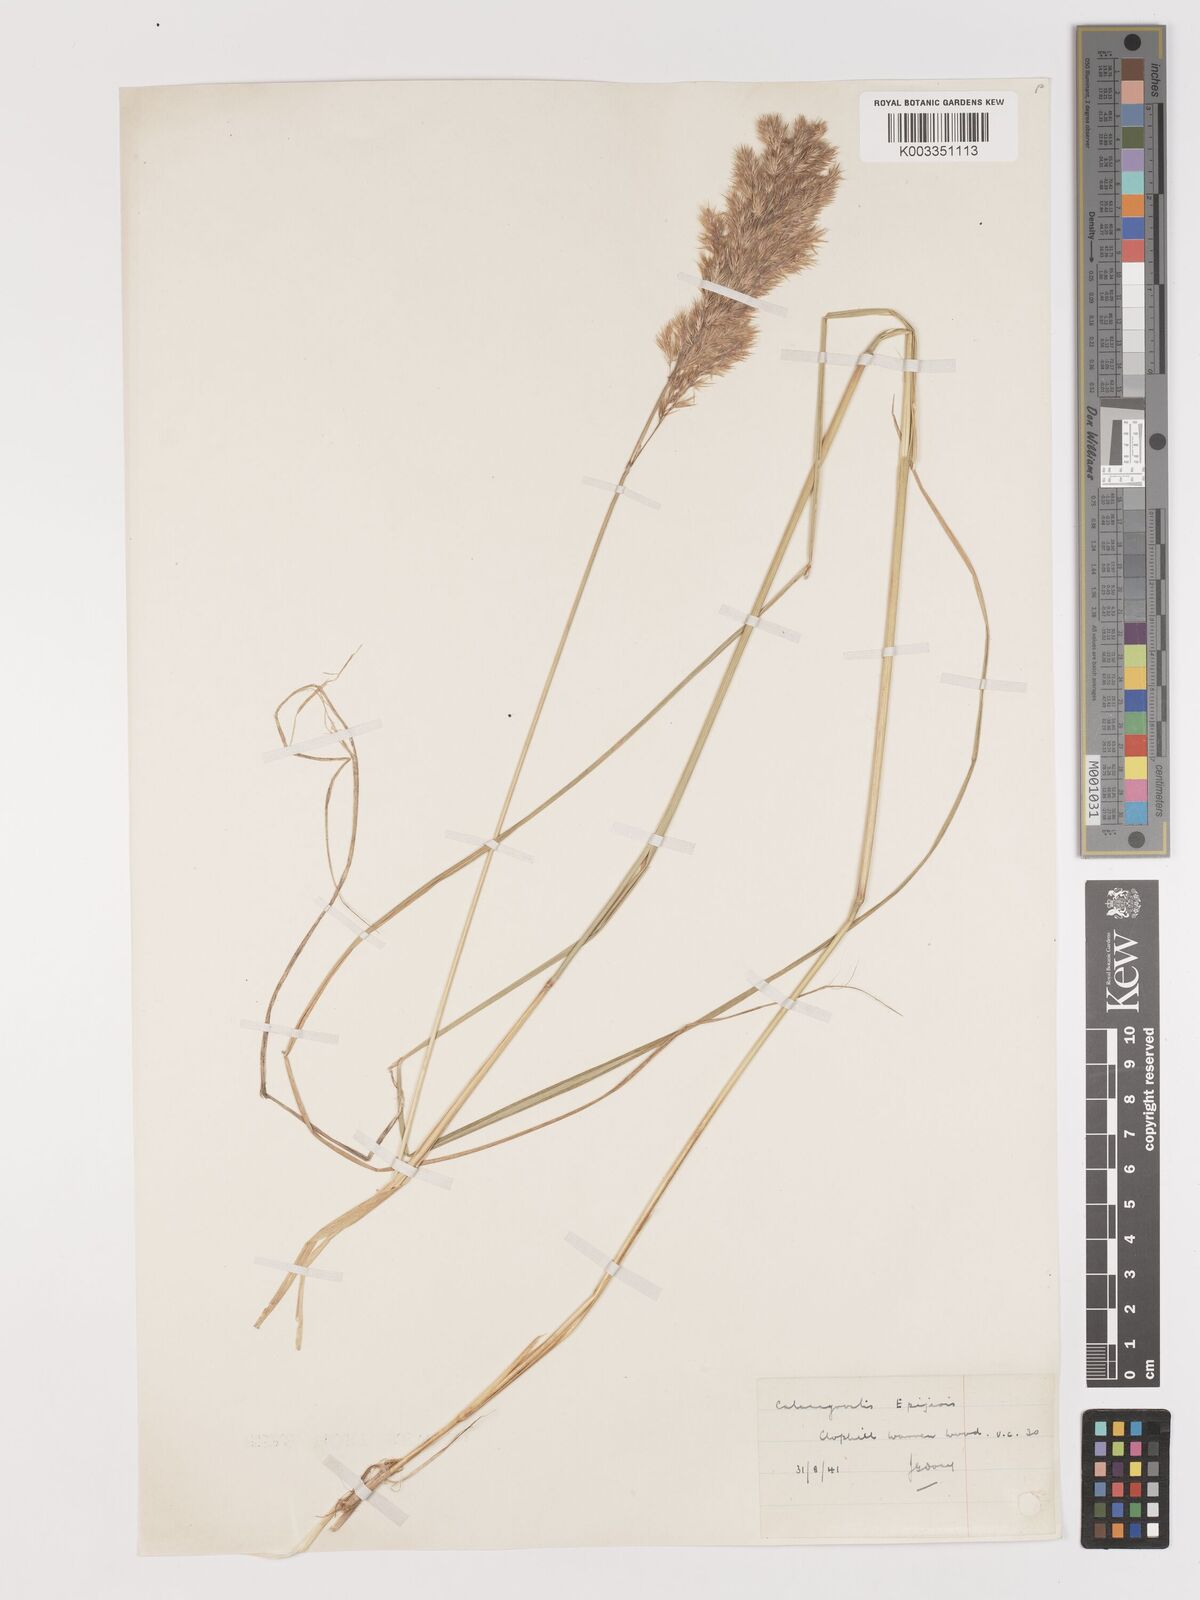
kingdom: Plantae
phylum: Tracheophyta
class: Liliopsida
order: Poales
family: Poaceae
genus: Calamagrostis
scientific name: Calamagrostis
